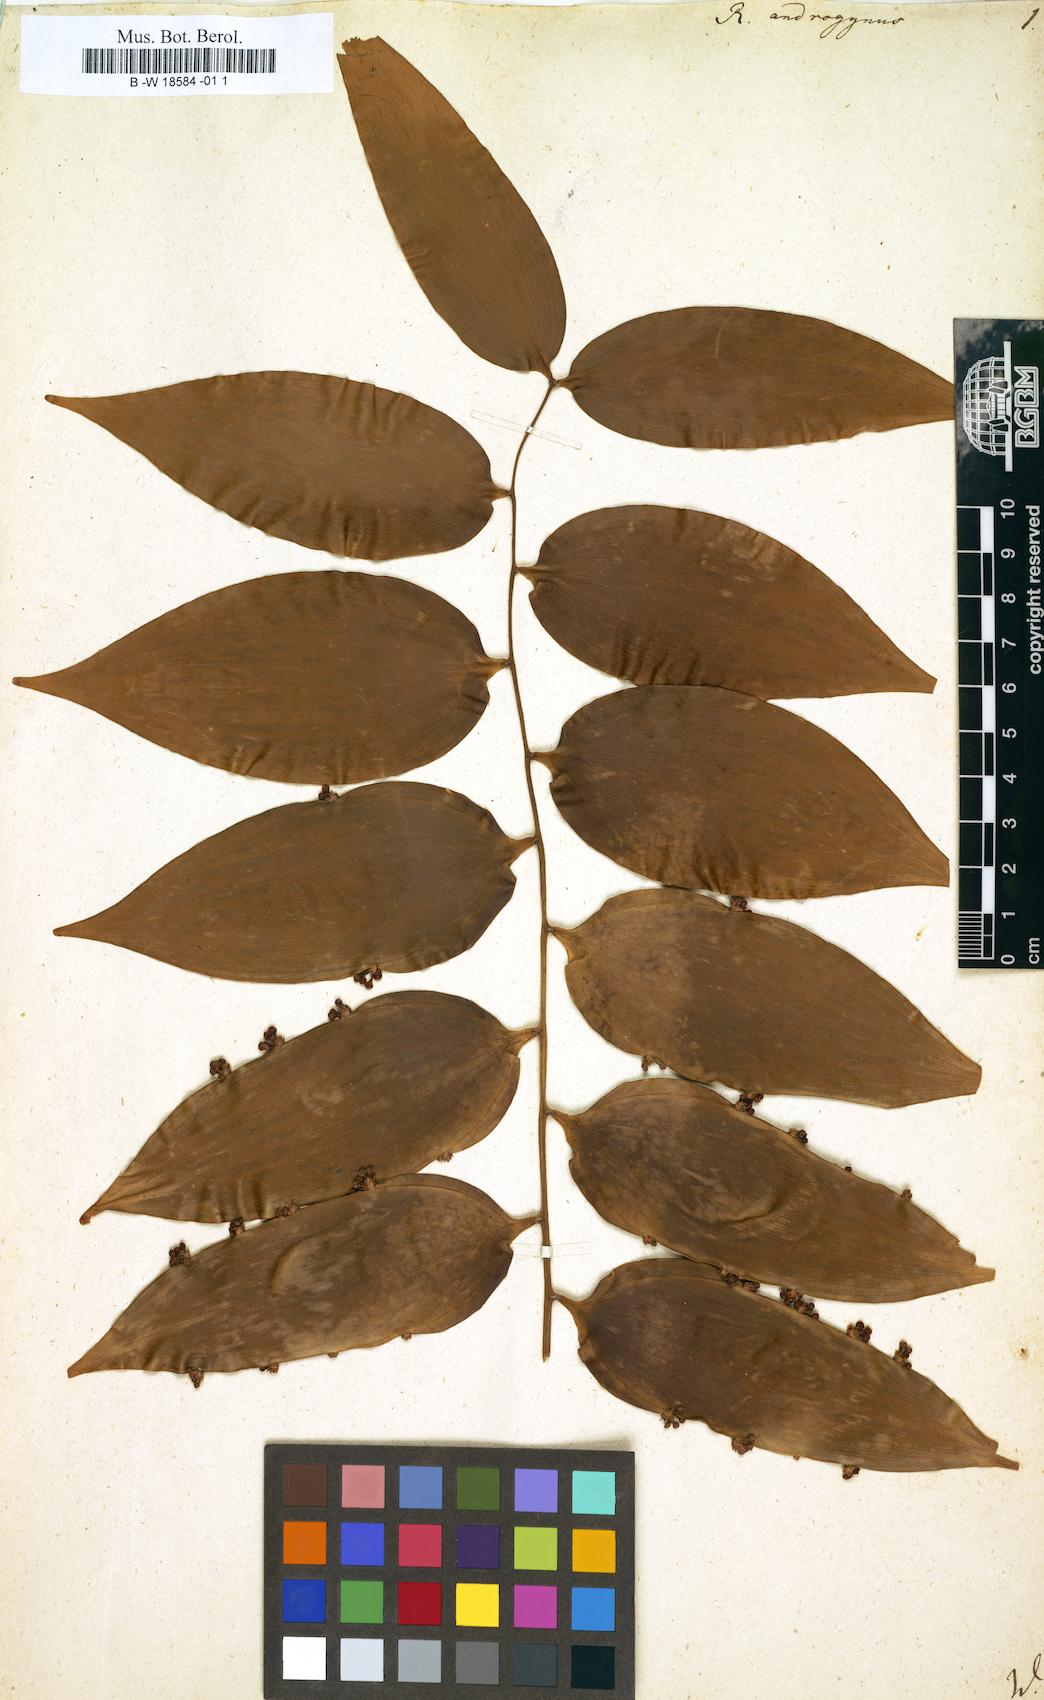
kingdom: Plantae
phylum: Tracheophyta
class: Liliopsida
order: Asparagales
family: Asparagaceae
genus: Semele
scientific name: Semele androgyna
